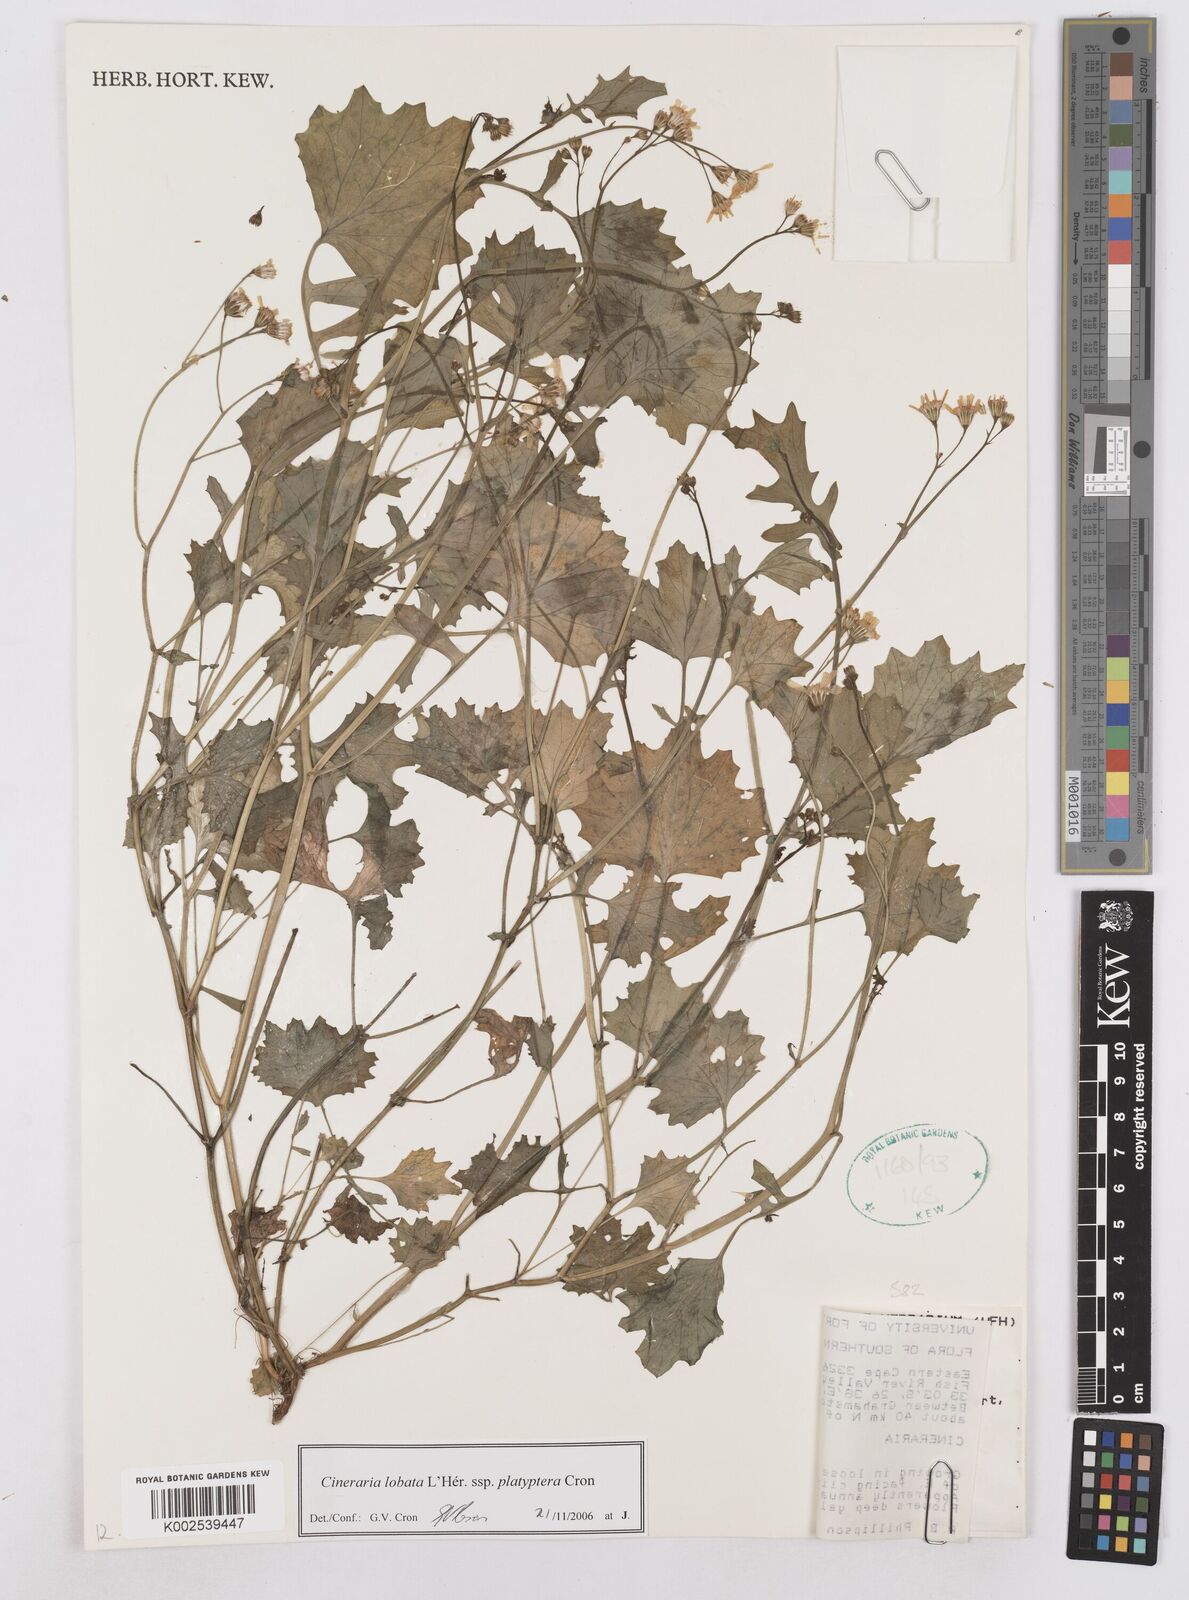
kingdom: Plantae
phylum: Tracheophyta
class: Magnoliopsida
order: Asterales
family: Asteraceae
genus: Cineraria
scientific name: Cineraria lobata
